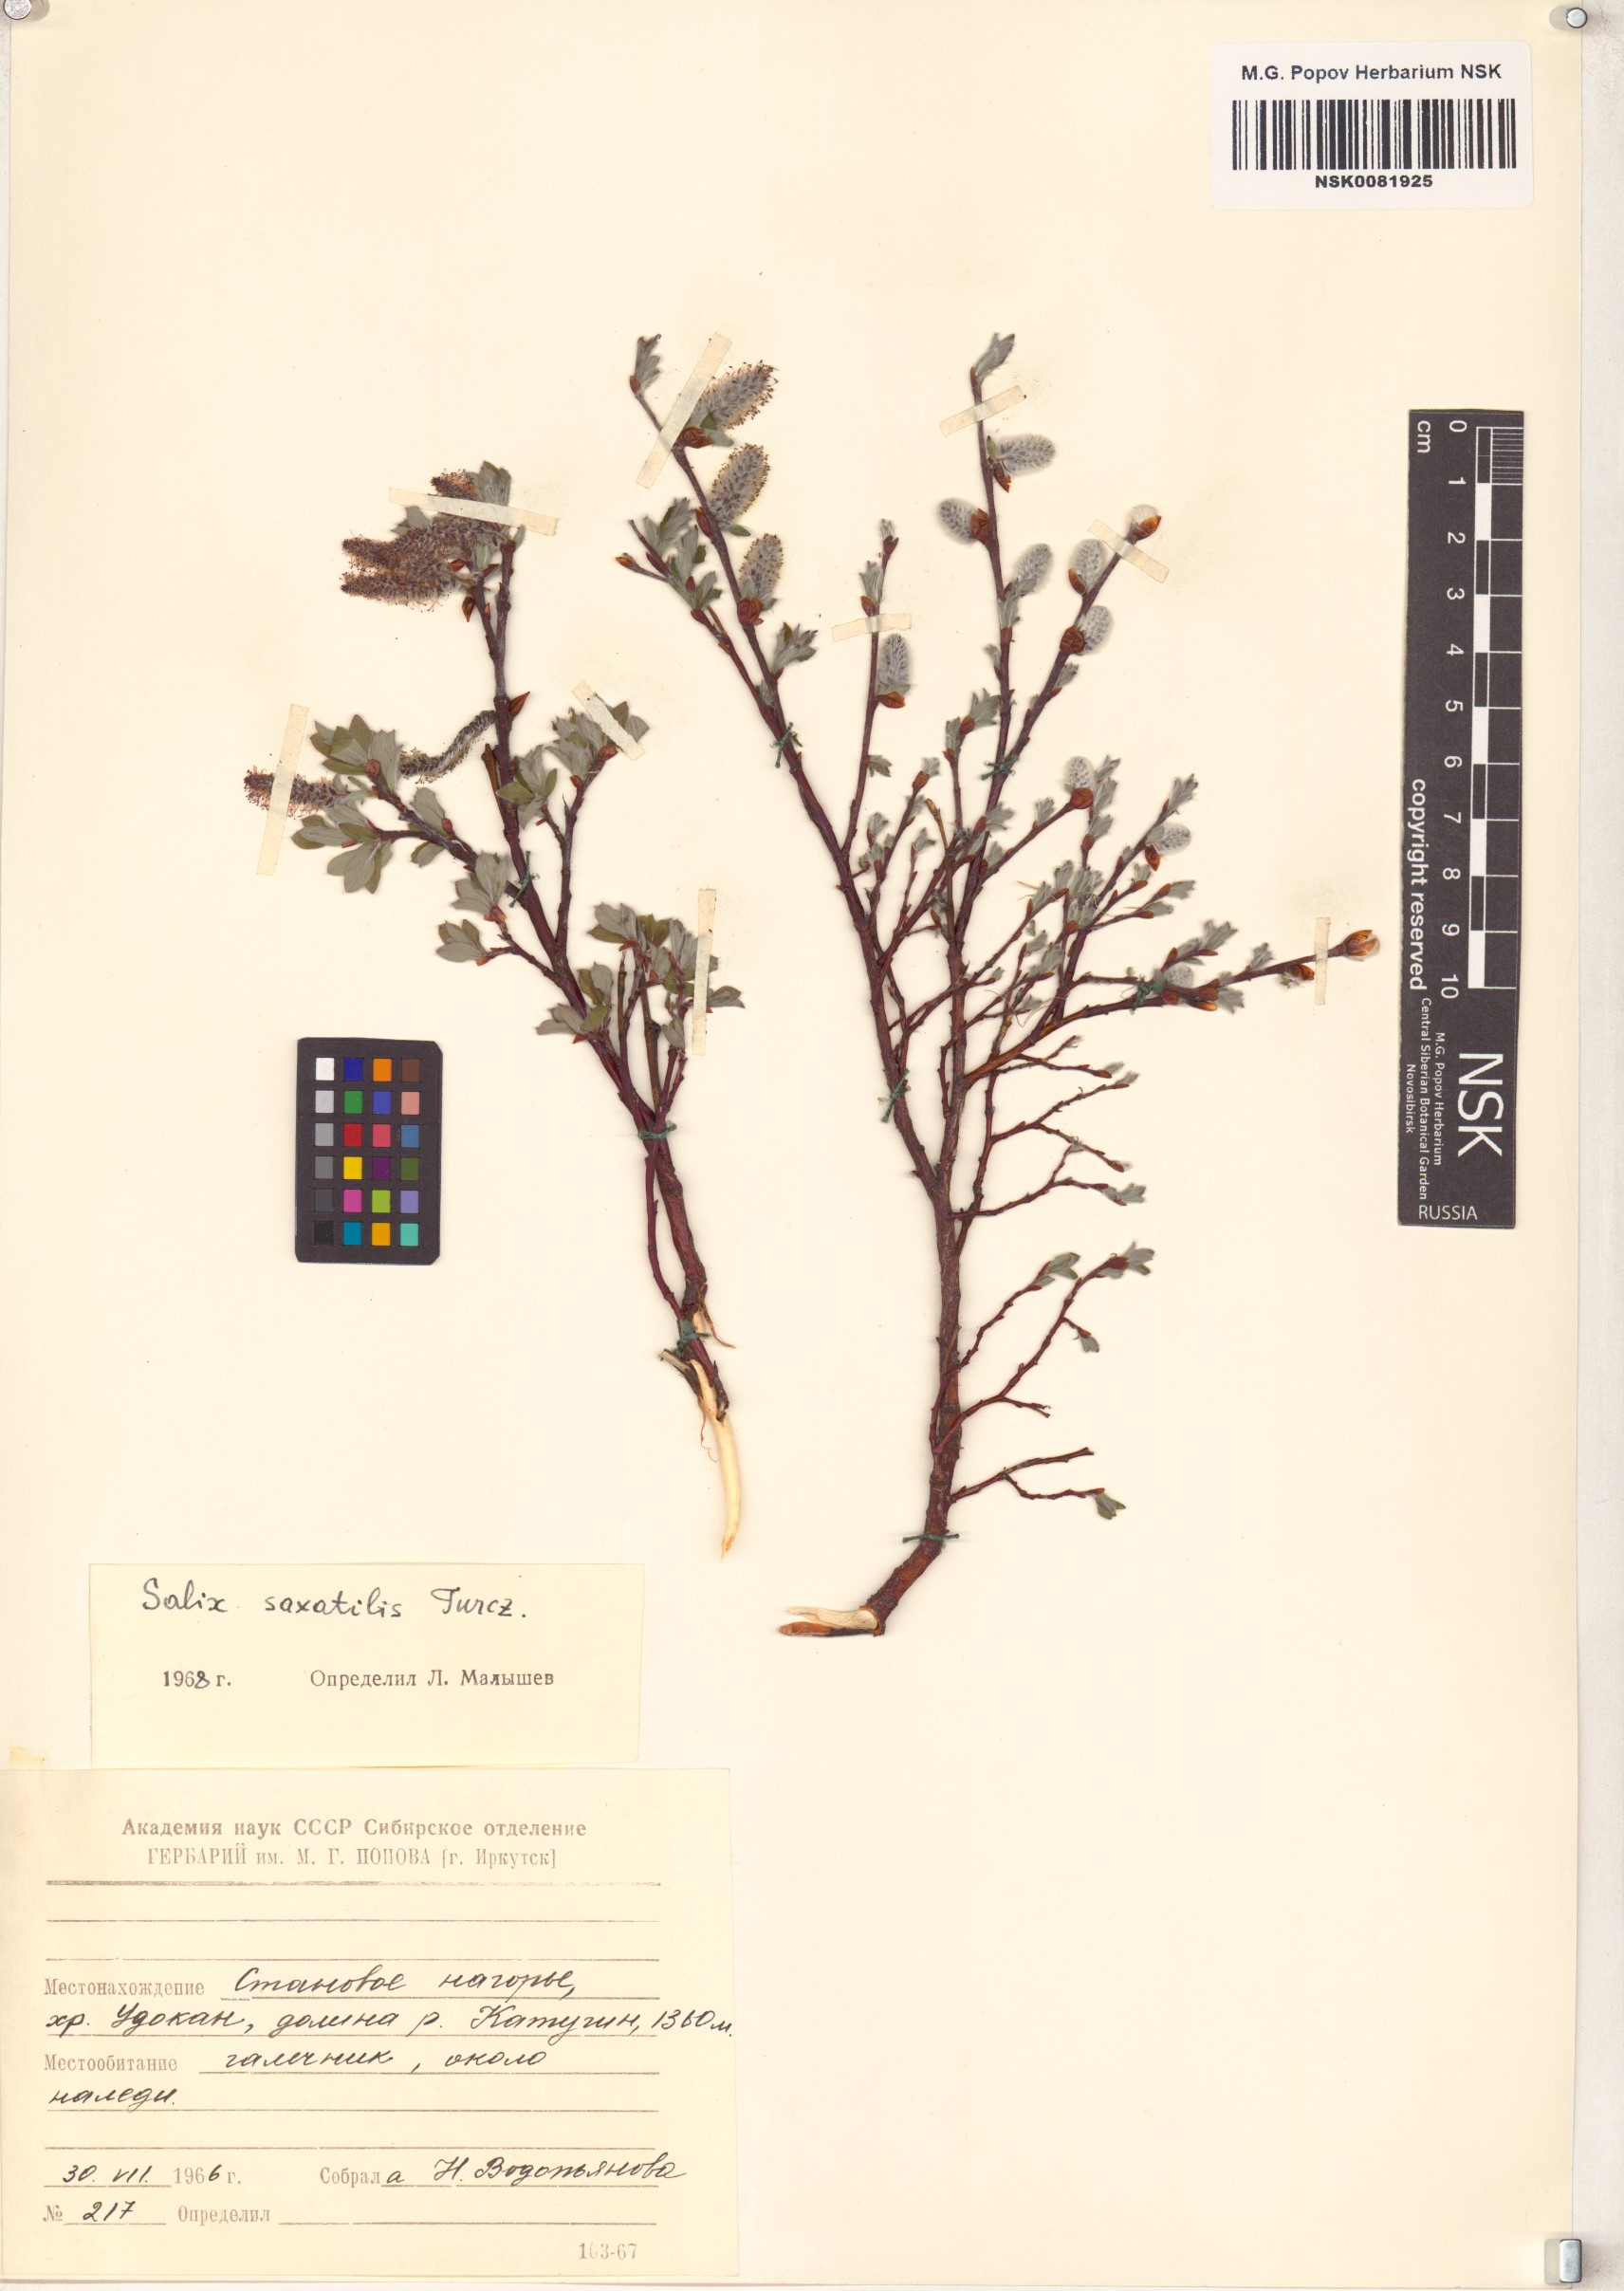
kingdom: Plantae
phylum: Tracheophyta
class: Magnoliopsida
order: Malpighiales
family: Salicaceae
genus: Salix
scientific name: Salix saxatilis
